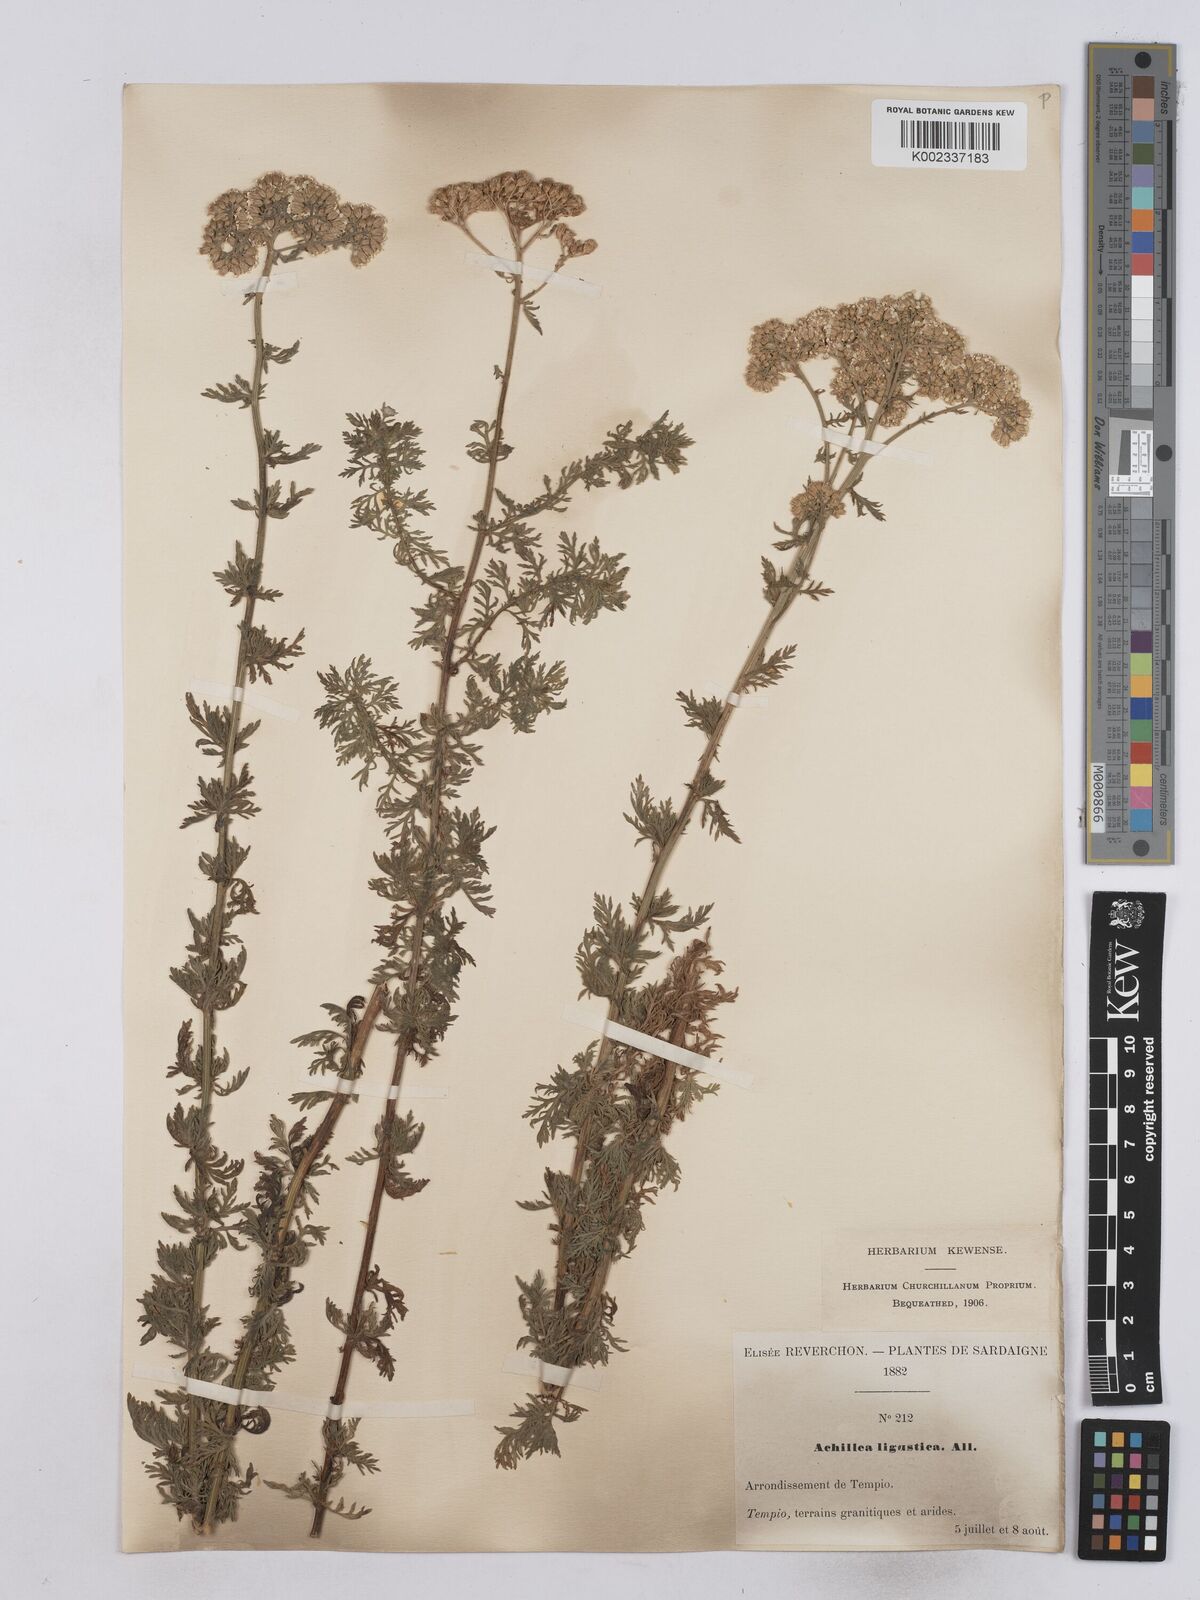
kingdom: Plantae
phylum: Tracheophyta
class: Magnoliopsida
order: Asterales
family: Asteraceae
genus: Achillea
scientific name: Achillea ligustica
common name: Southern yarrow
